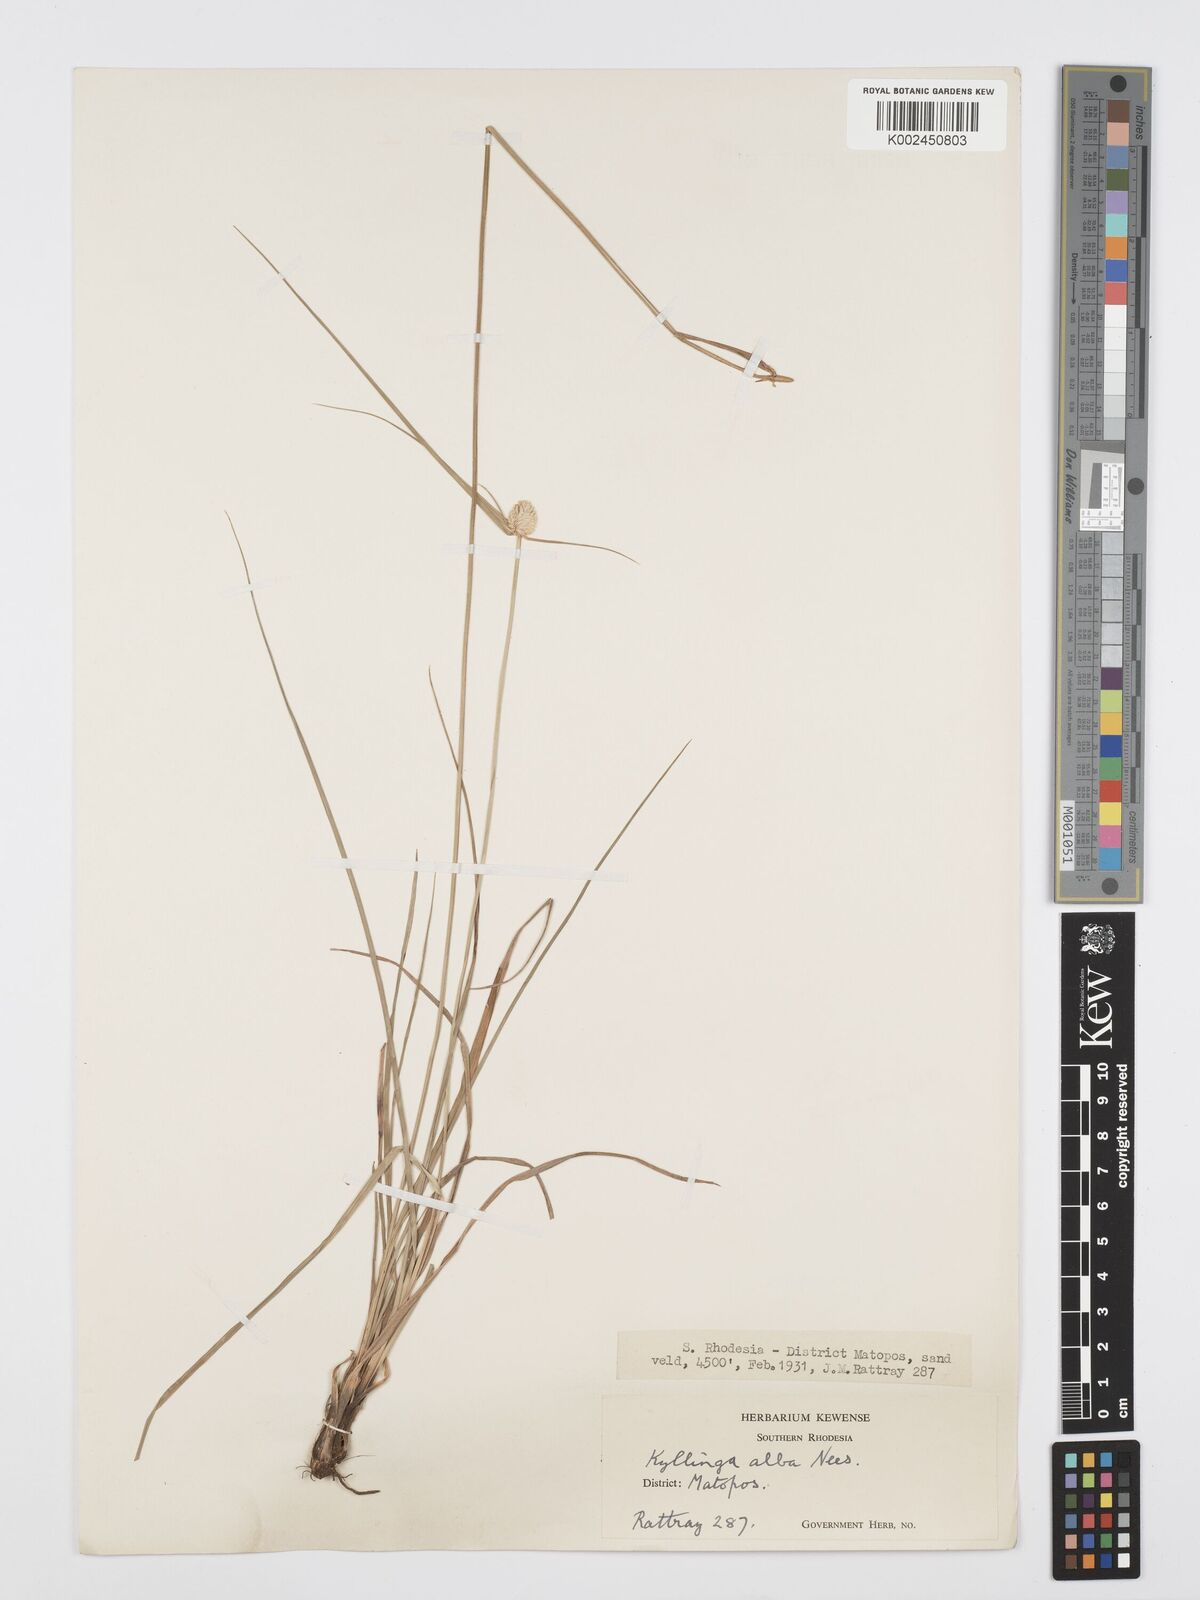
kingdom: Plantae
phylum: Tracheophyta
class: Liliopsida
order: Poales
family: Cyperaceae
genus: Cyperus
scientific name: Cyperus
